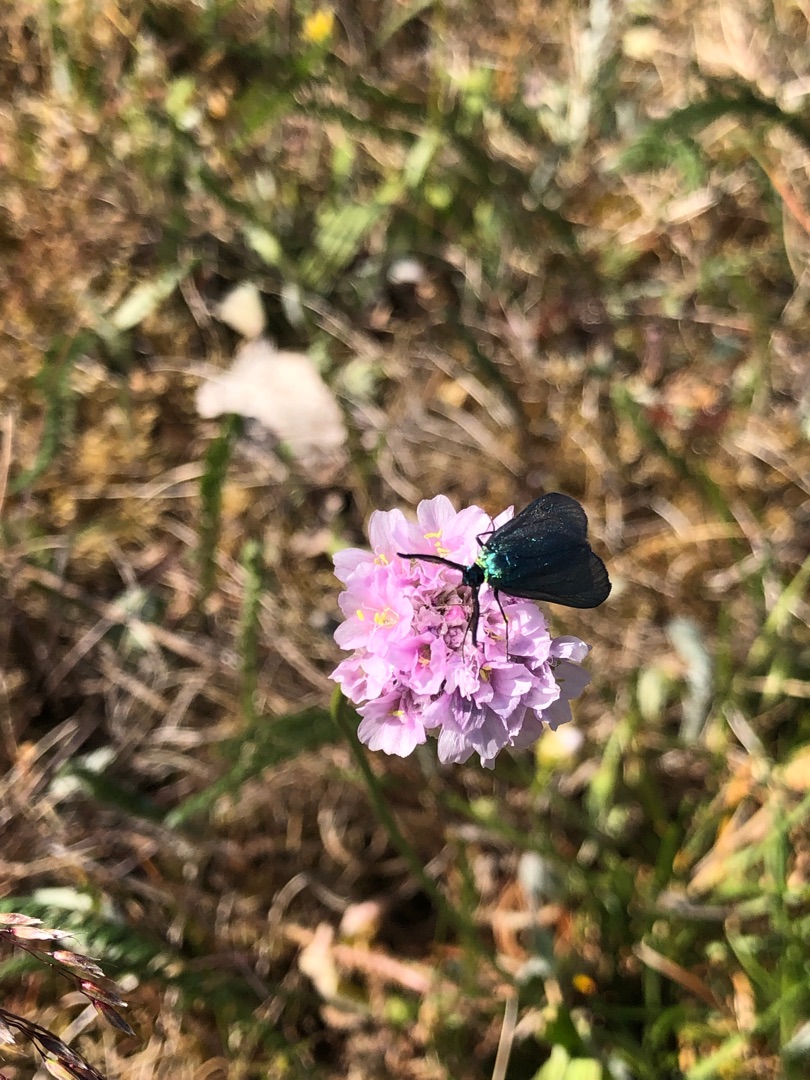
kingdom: Animalia
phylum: Arthropoda
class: Insecta
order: Lepidoptera
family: Zygaenidae
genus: Adscita
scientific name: Adscita statices
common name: Metalvinge
